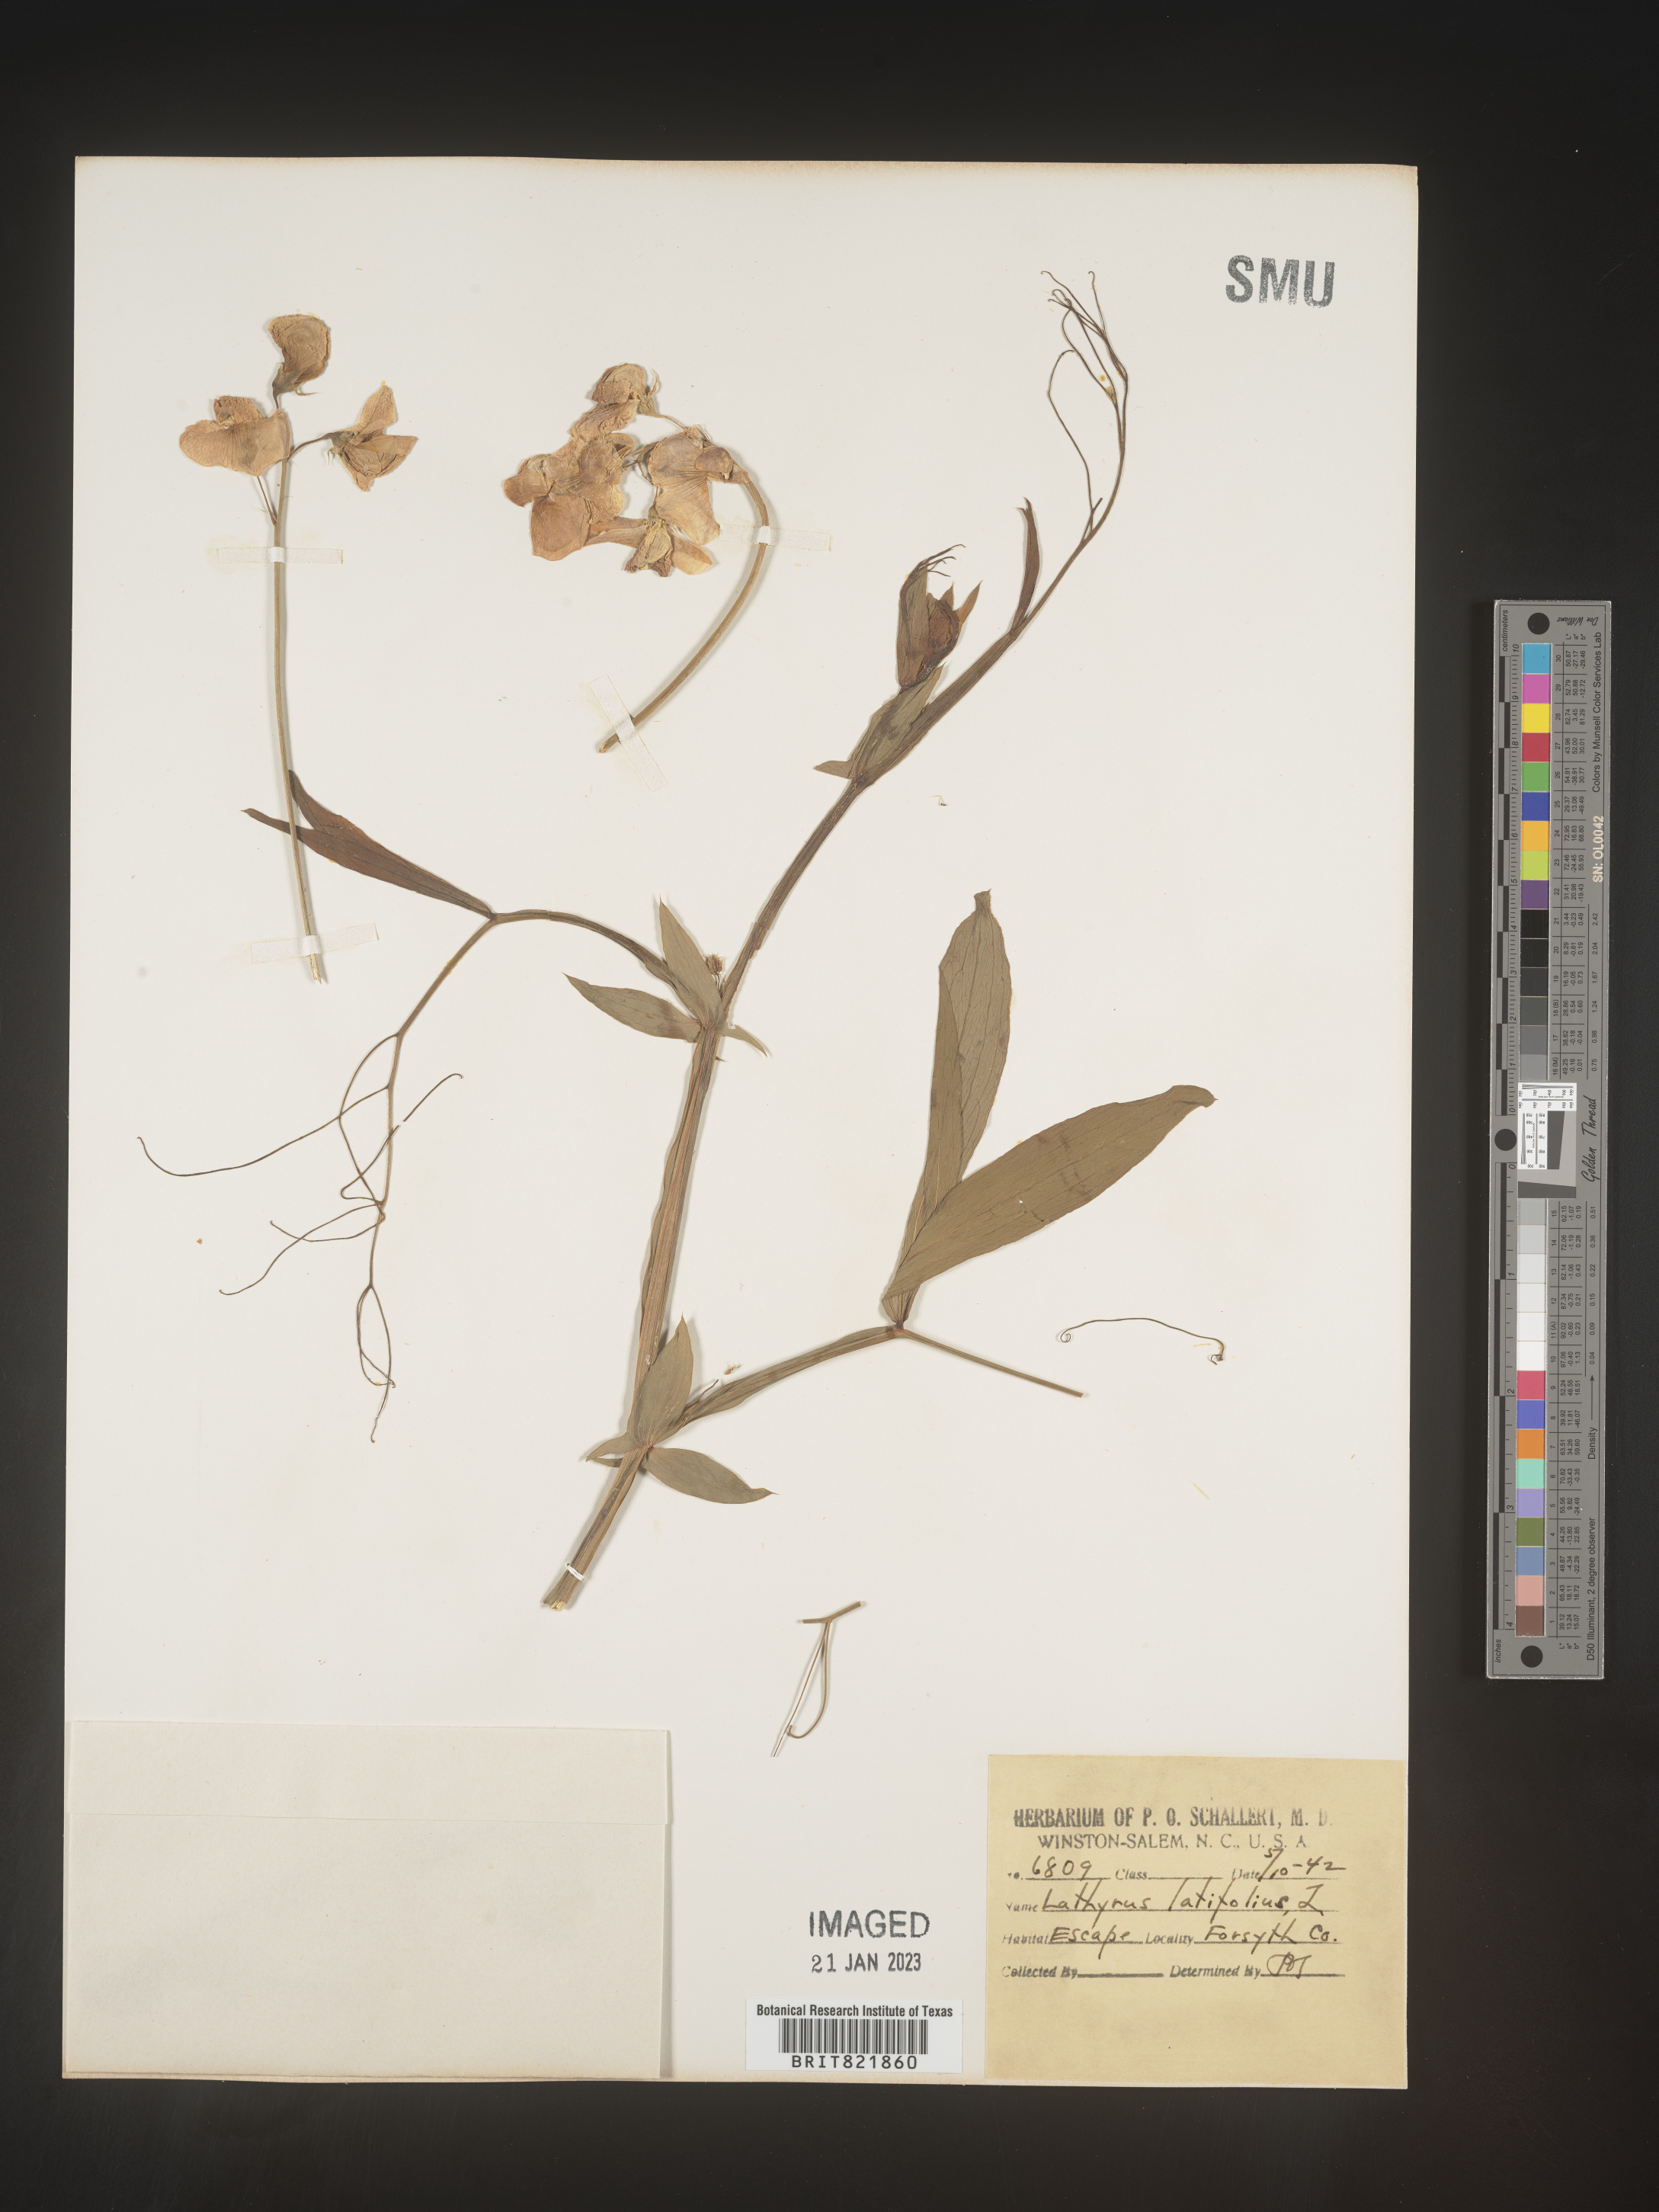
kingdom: Plantae
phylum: Tracheophyta
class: Magnoliopsida
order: Fabales
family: Fabaceae
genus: Lathyrus
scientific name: Lathyrus latifolius
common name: Perennial pea
